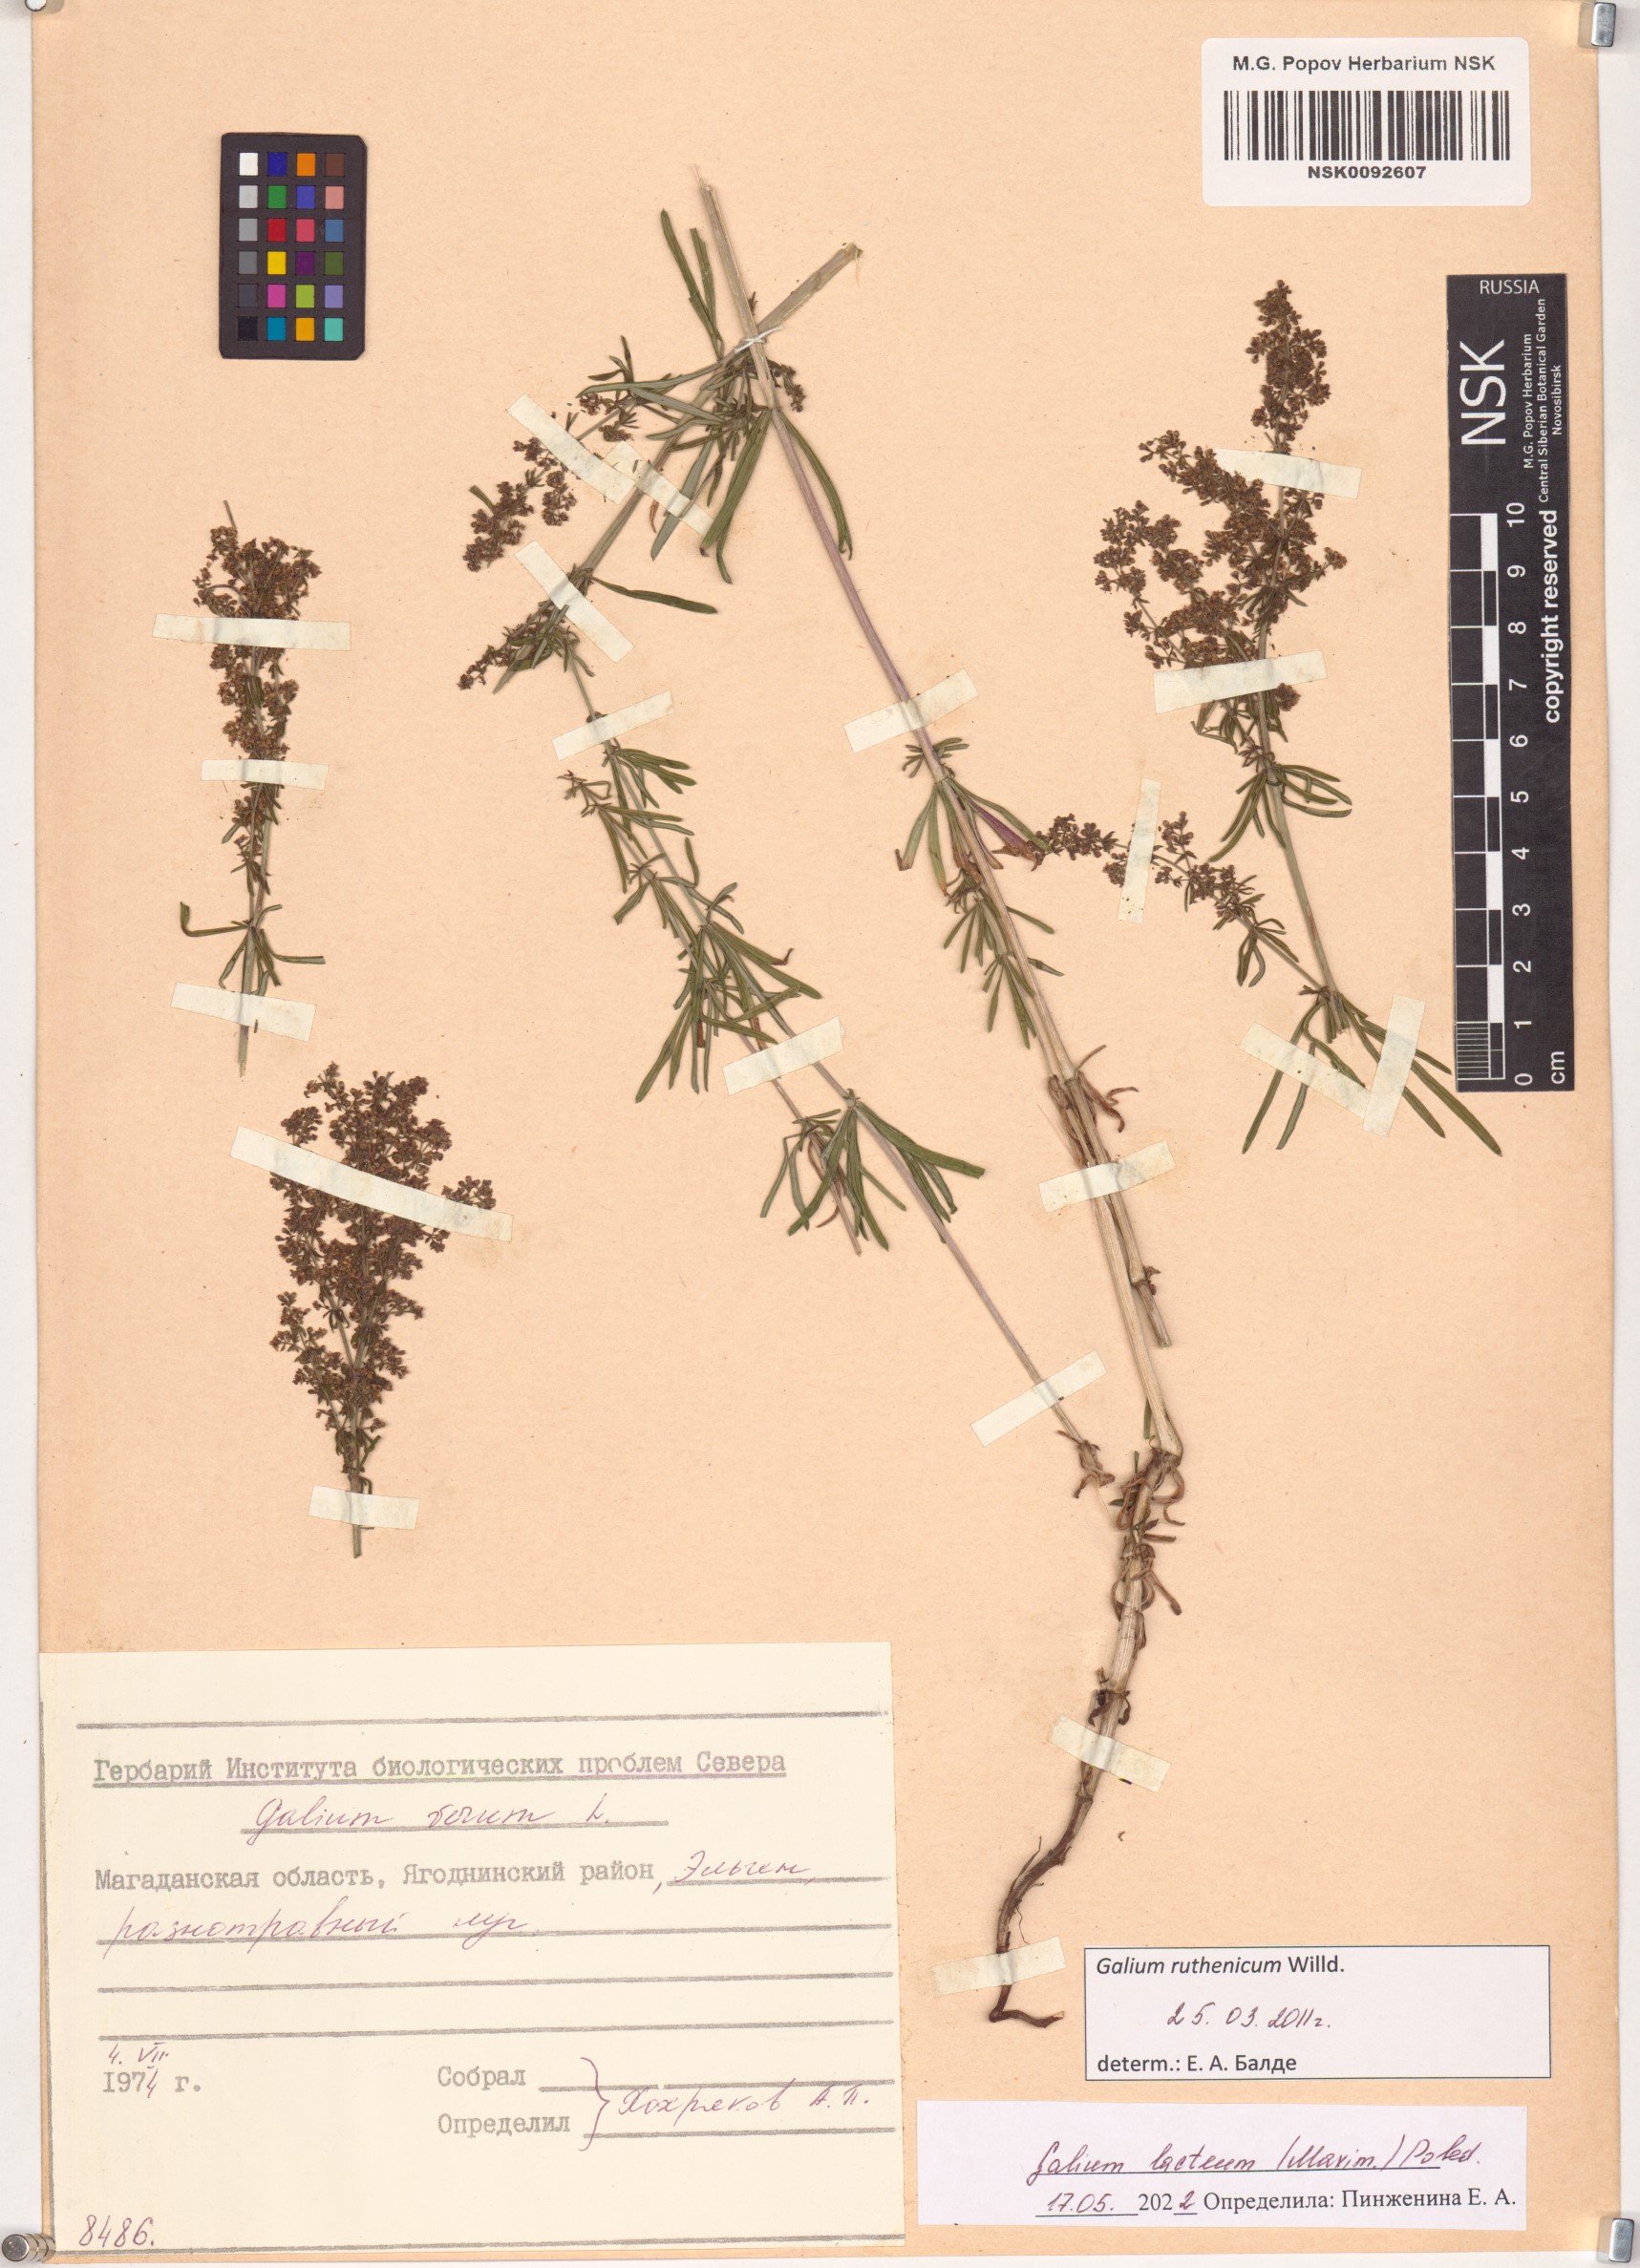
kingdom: Plantae
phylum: Tracheophyta
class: Magnoliopsida
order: Gentianales
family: Rubiaceae
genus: Galium
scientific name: Galium verum
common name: Lady's bedstraw
